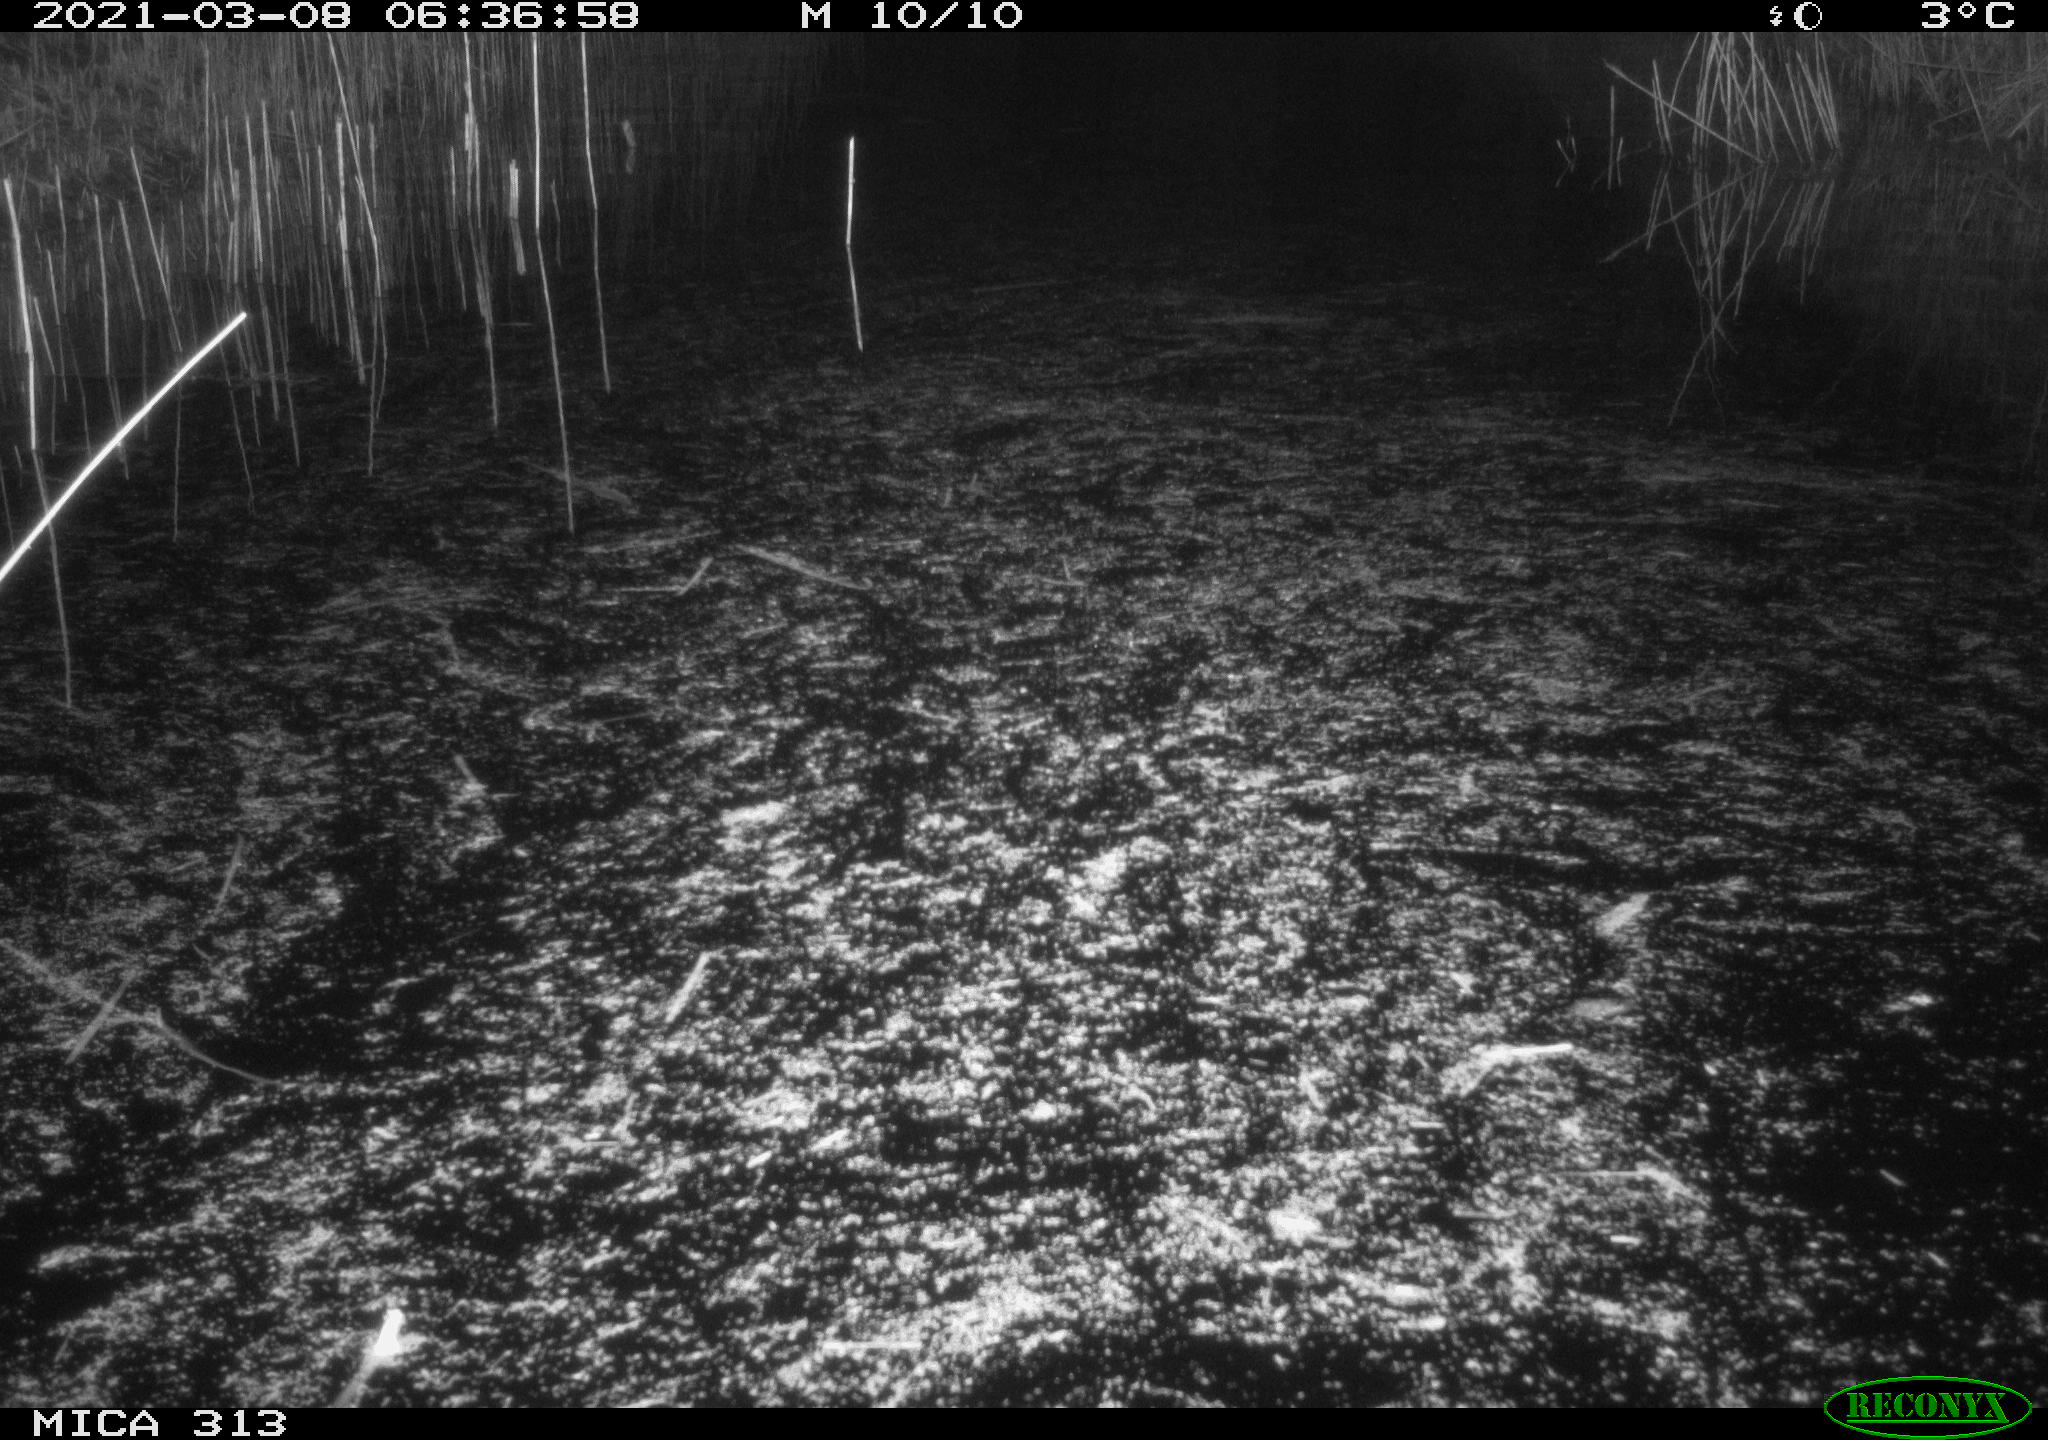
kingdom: Animalia
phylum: Chordata
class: Aves
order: Gruiformes
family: Rallidae
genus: Gallinula
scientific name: Gallinula chloropus
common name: Common moorhen
